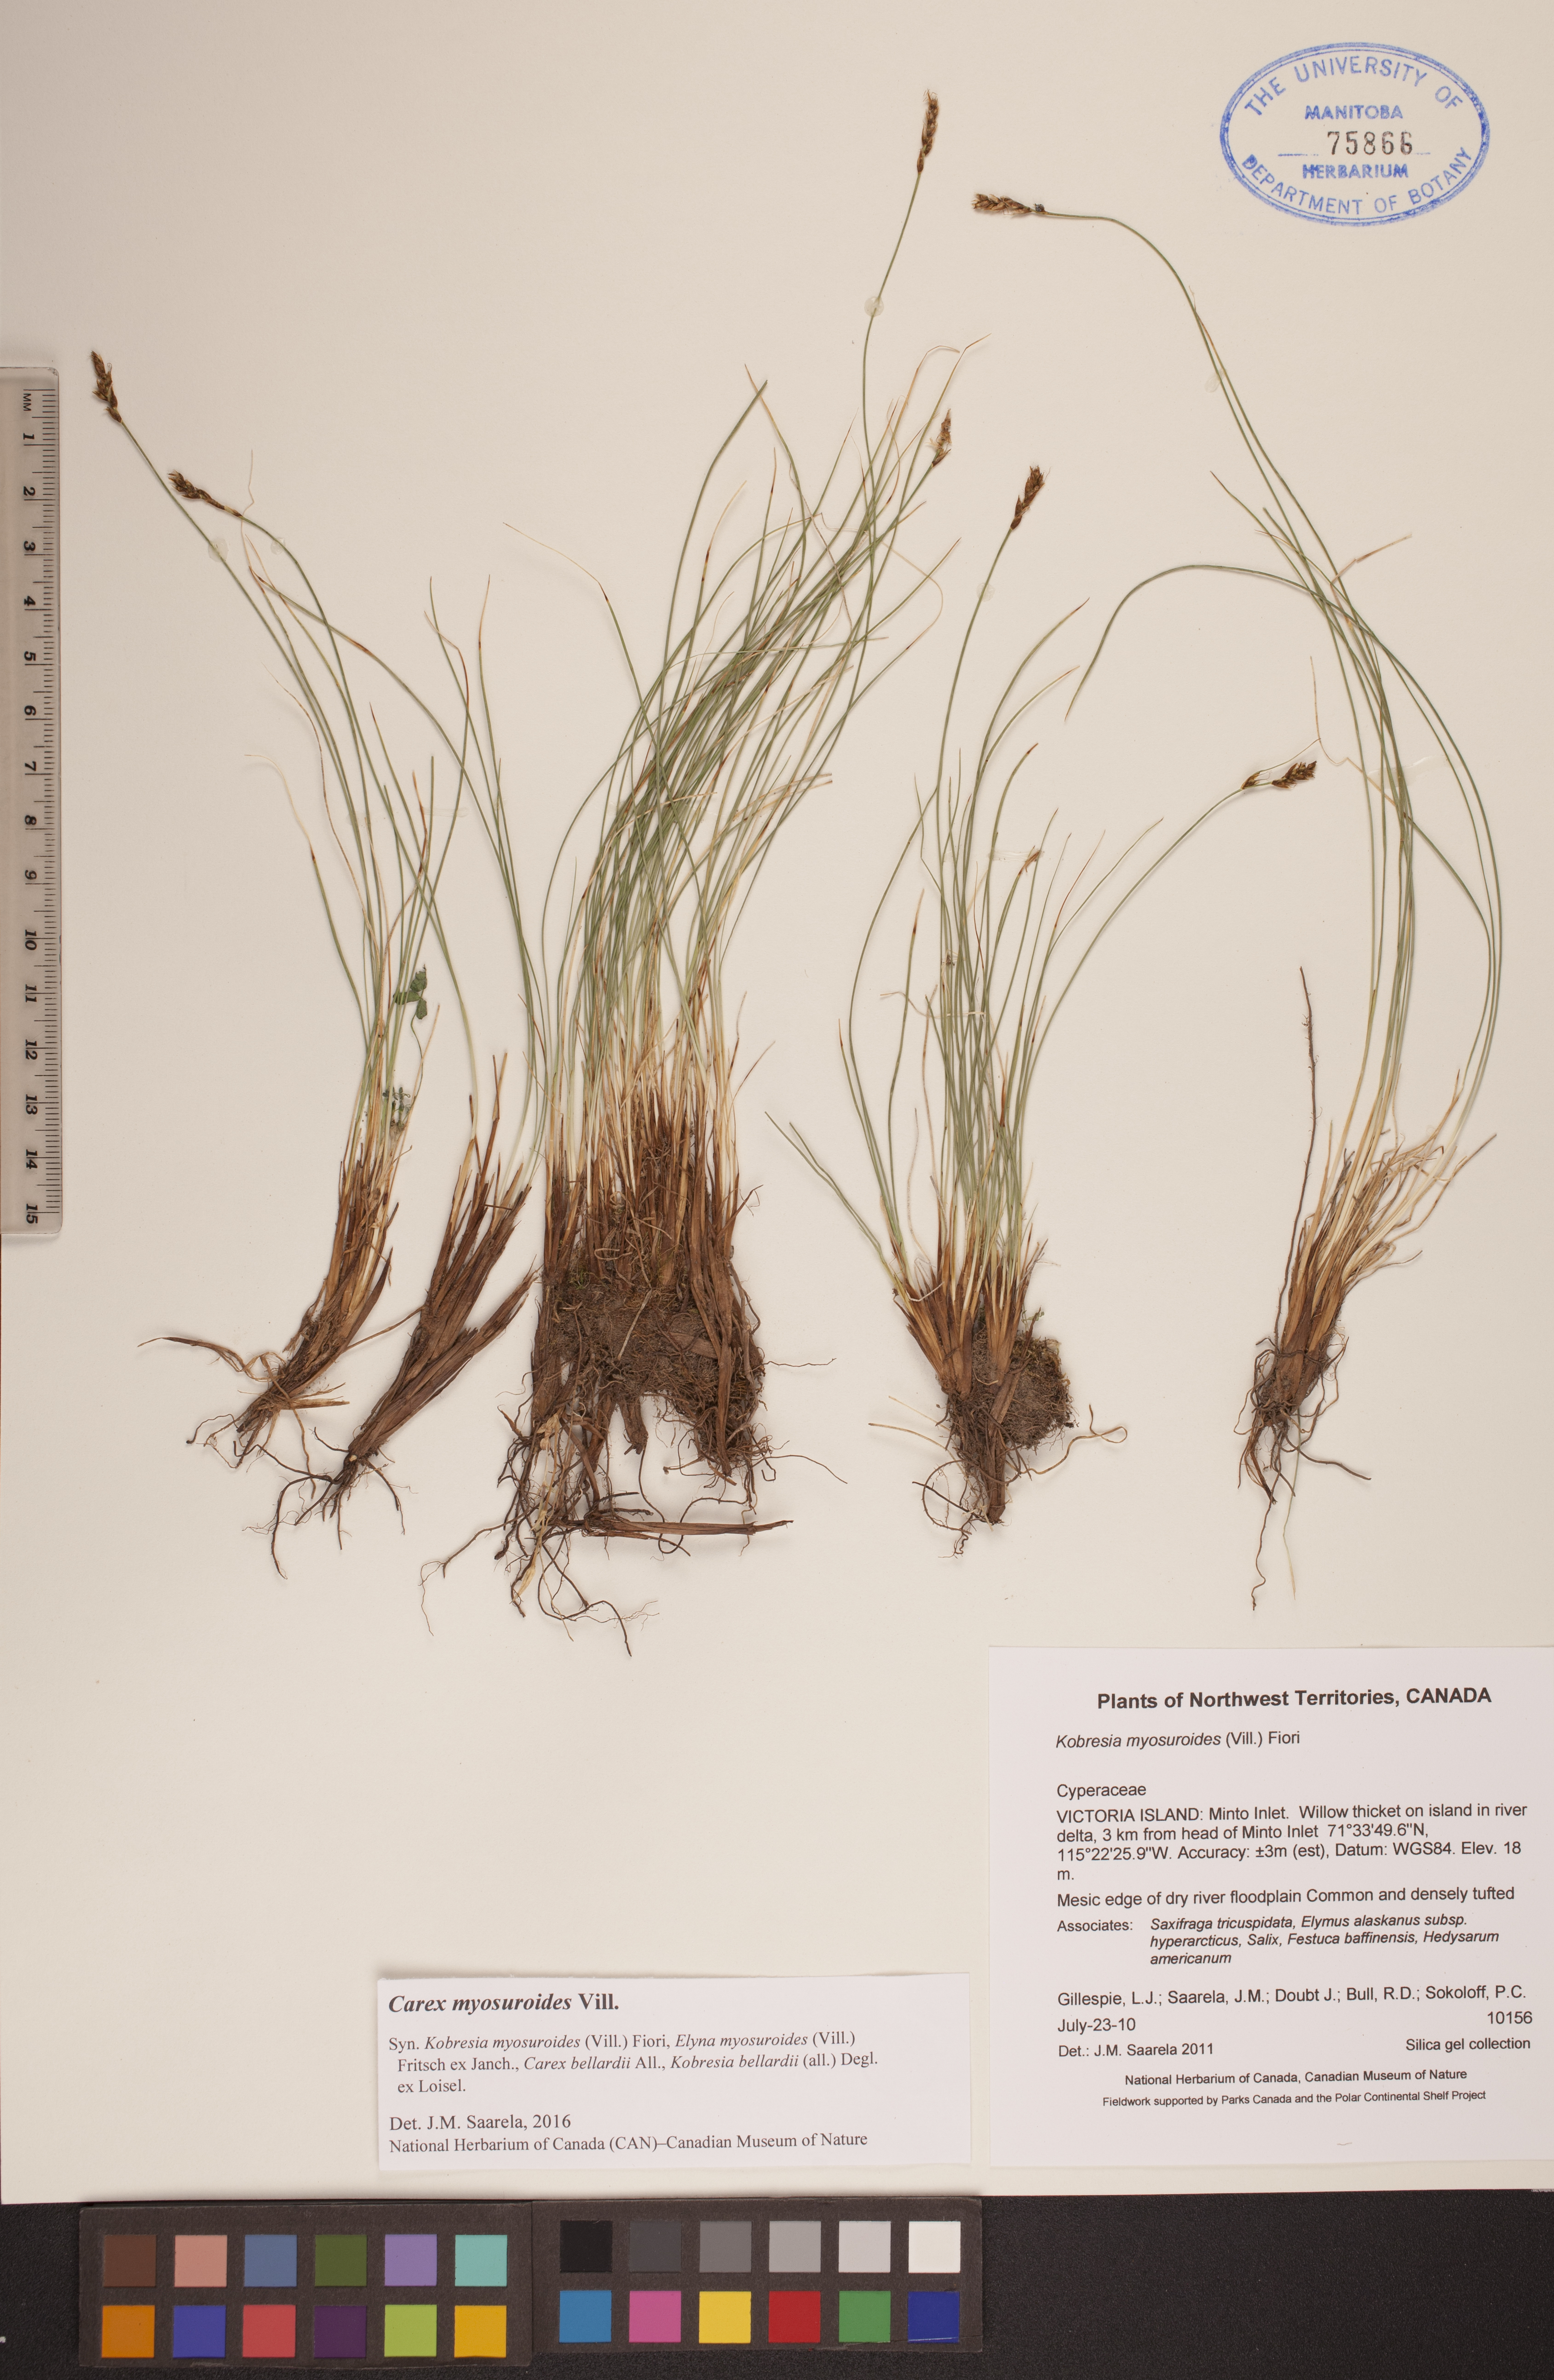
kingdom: Plantae
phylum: Tracheophyta
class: Liliopsida
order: Poales
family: Cyperaceae
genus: Carex
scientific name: Carex myosuroides
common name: Bellard's bog sedge
